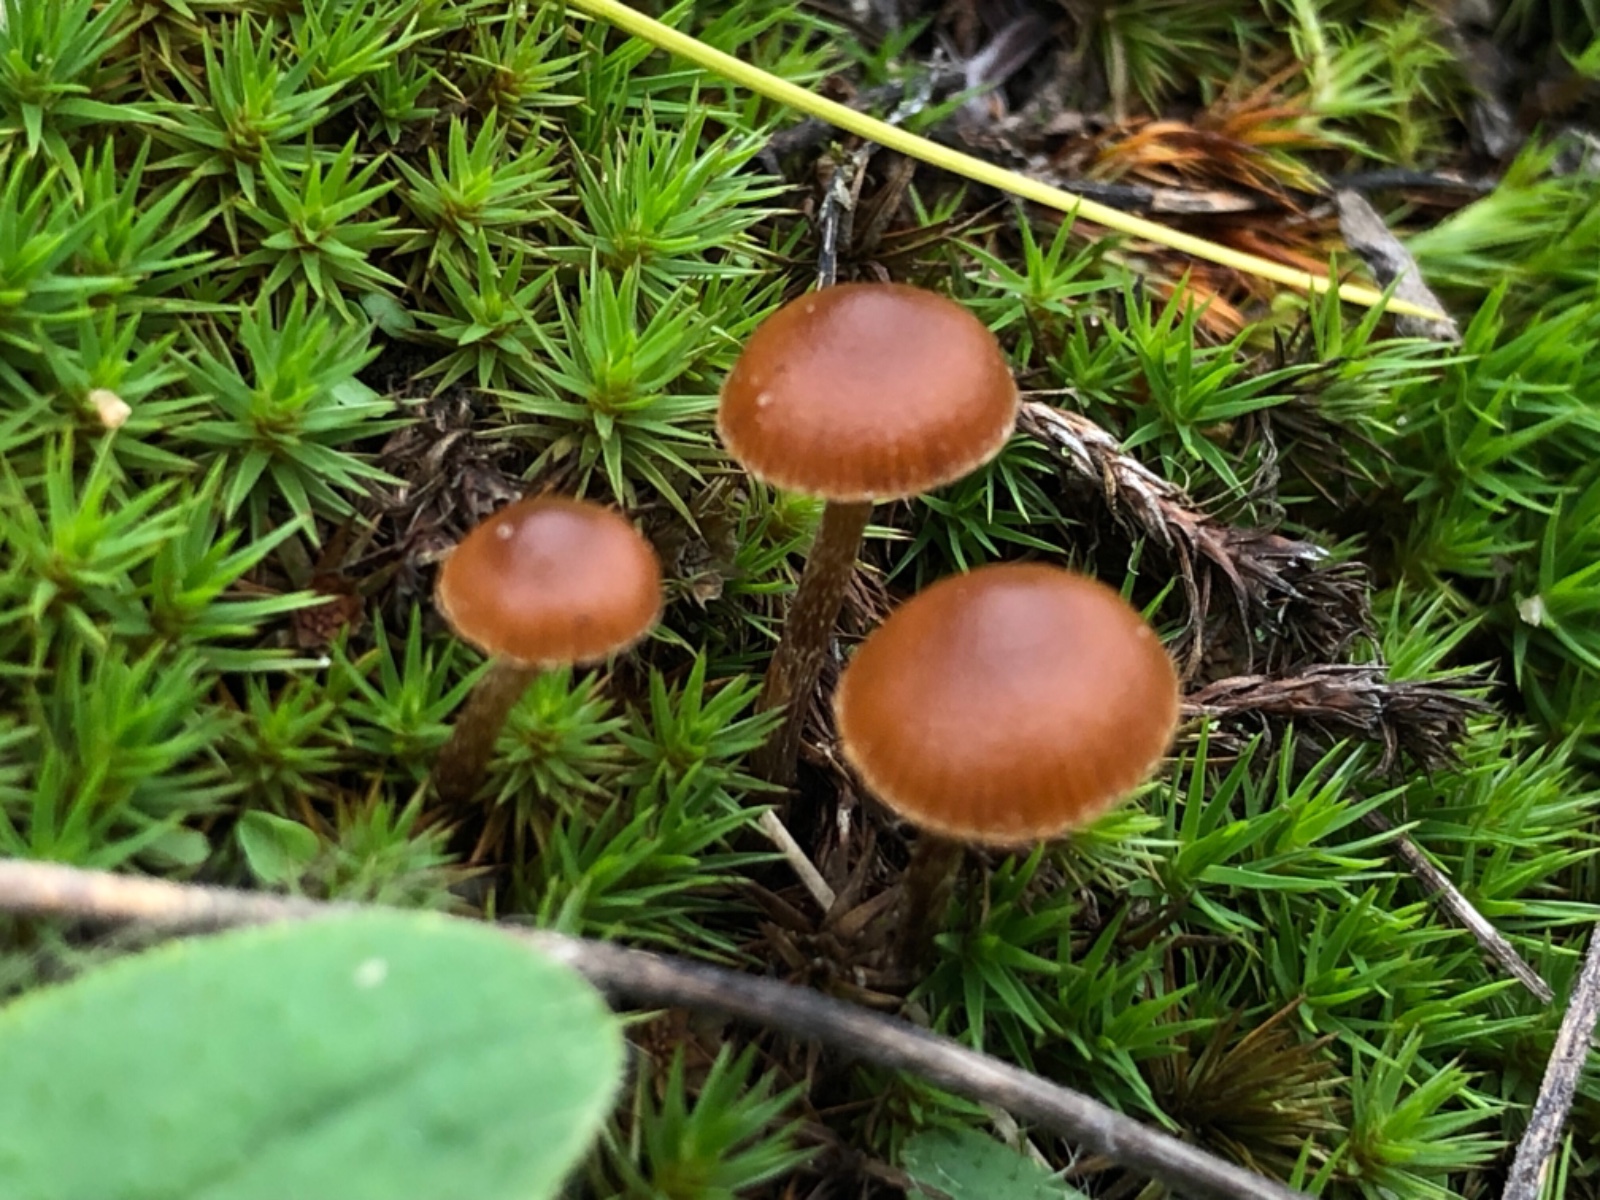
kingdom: Fungi
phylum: Basidiomycota
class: Agaricomycetes
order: Agaricales
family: Strophariaceae
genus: Deconica
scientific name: Deconica montana
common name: rødbrun stråhat
